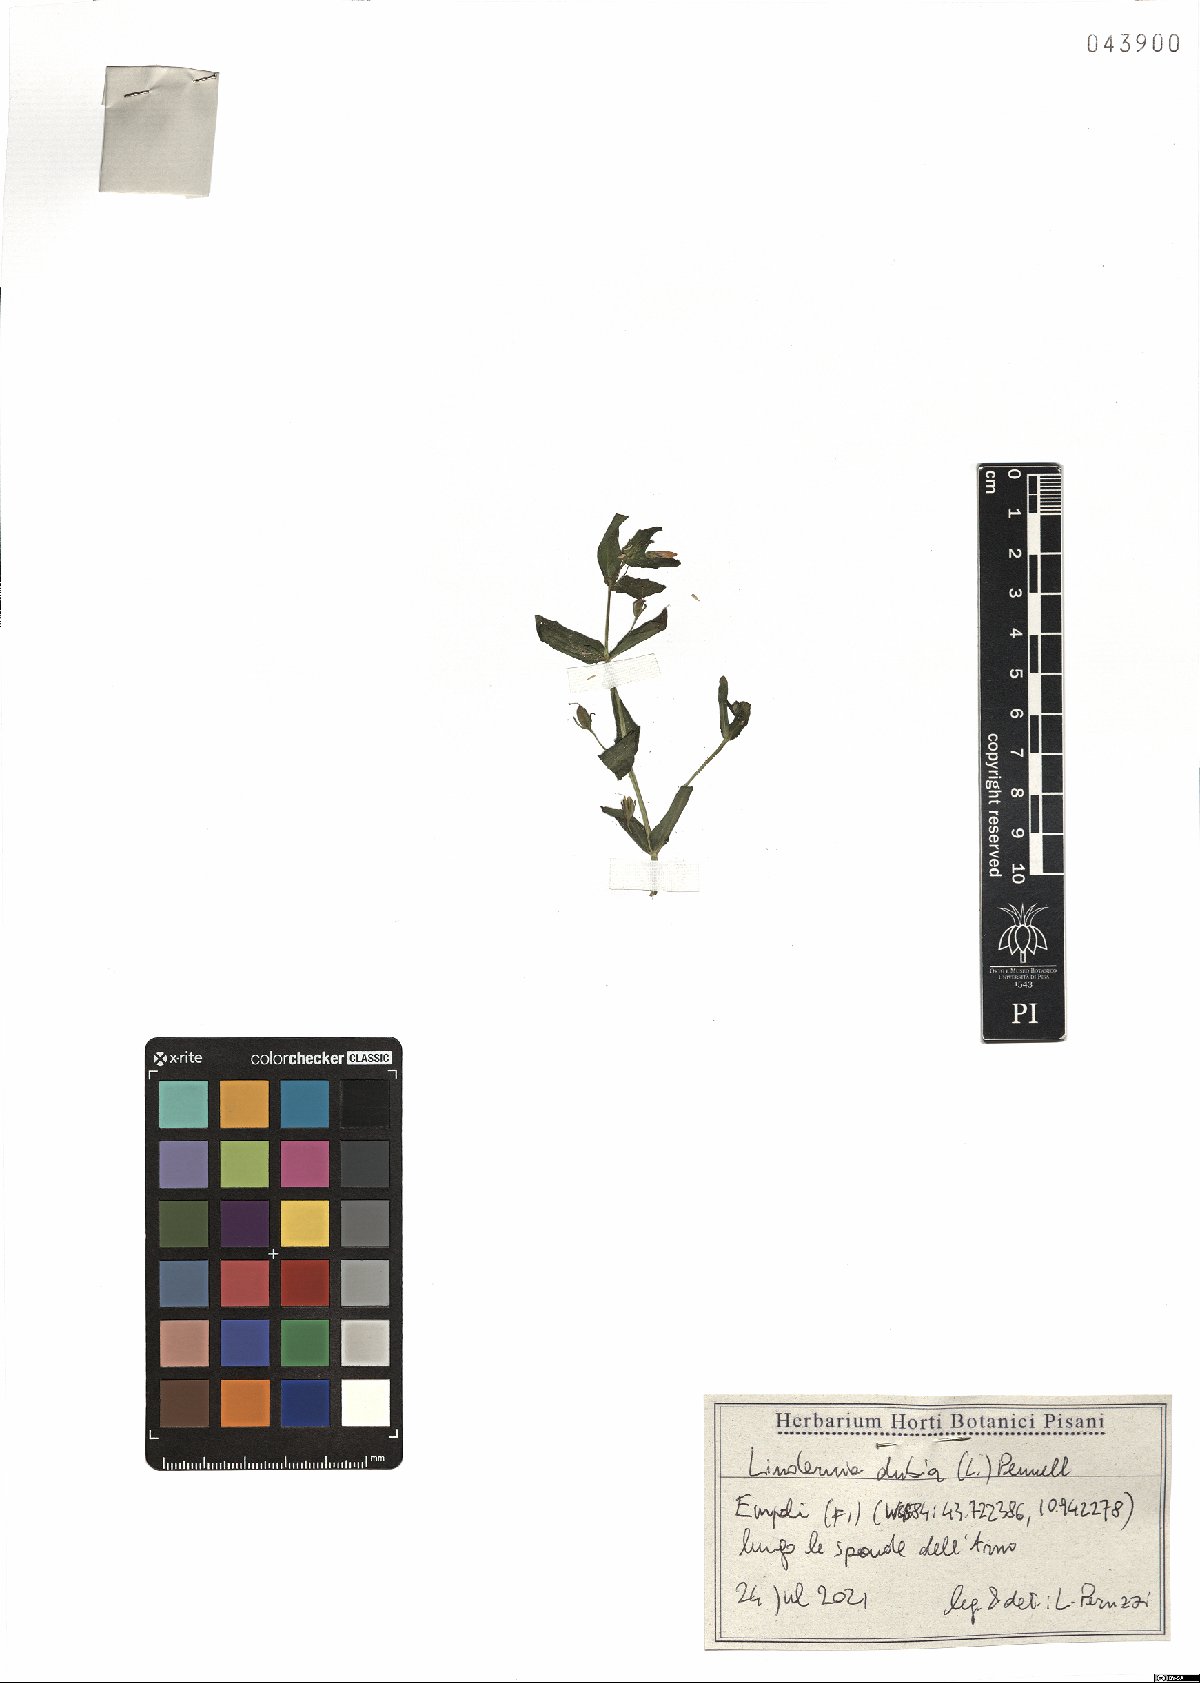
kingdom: Plantae
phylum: Tracheophyta
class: Magnoliopsida
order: Lamiales
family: Linderniaceae
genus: Lindernia
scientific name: Lindernia dubia
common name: Annual false pimpernel
